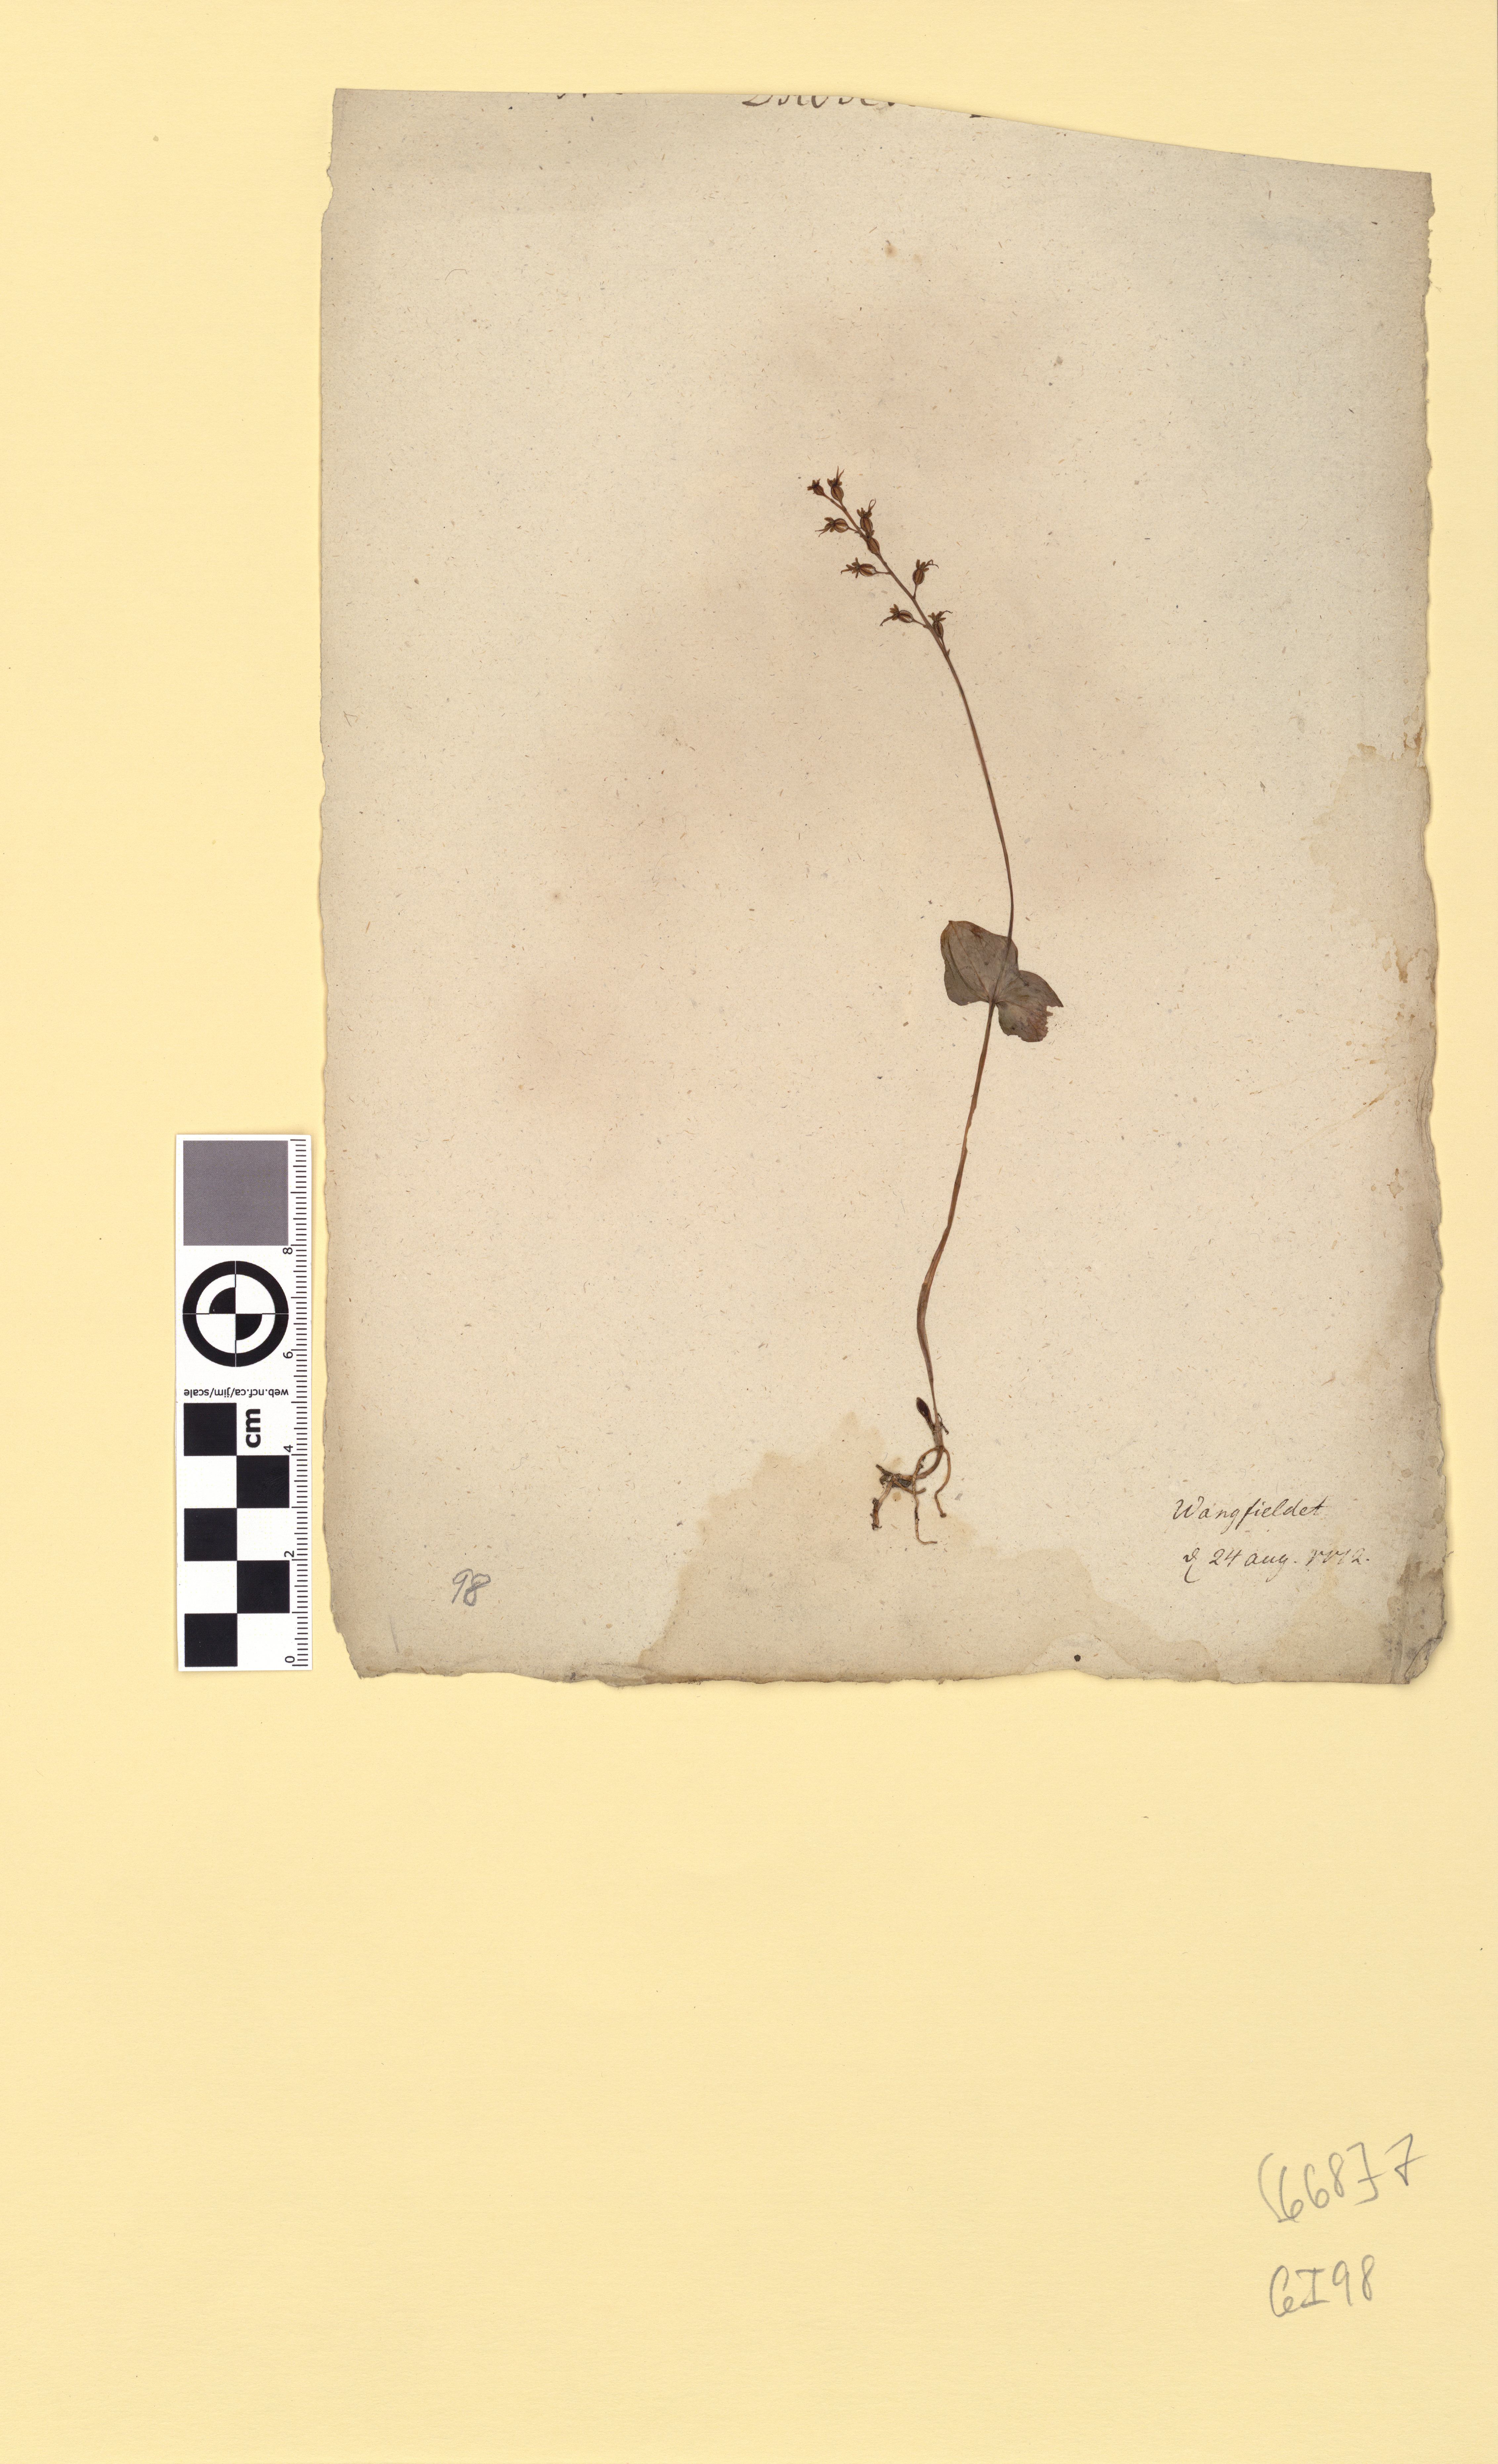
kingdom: Plantae
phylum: Tracheophyta
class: Liliopsida
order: Asparagales
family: Orchidaceae
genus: Neottia
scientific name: Neottia cordata
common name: Lesser twayblade
